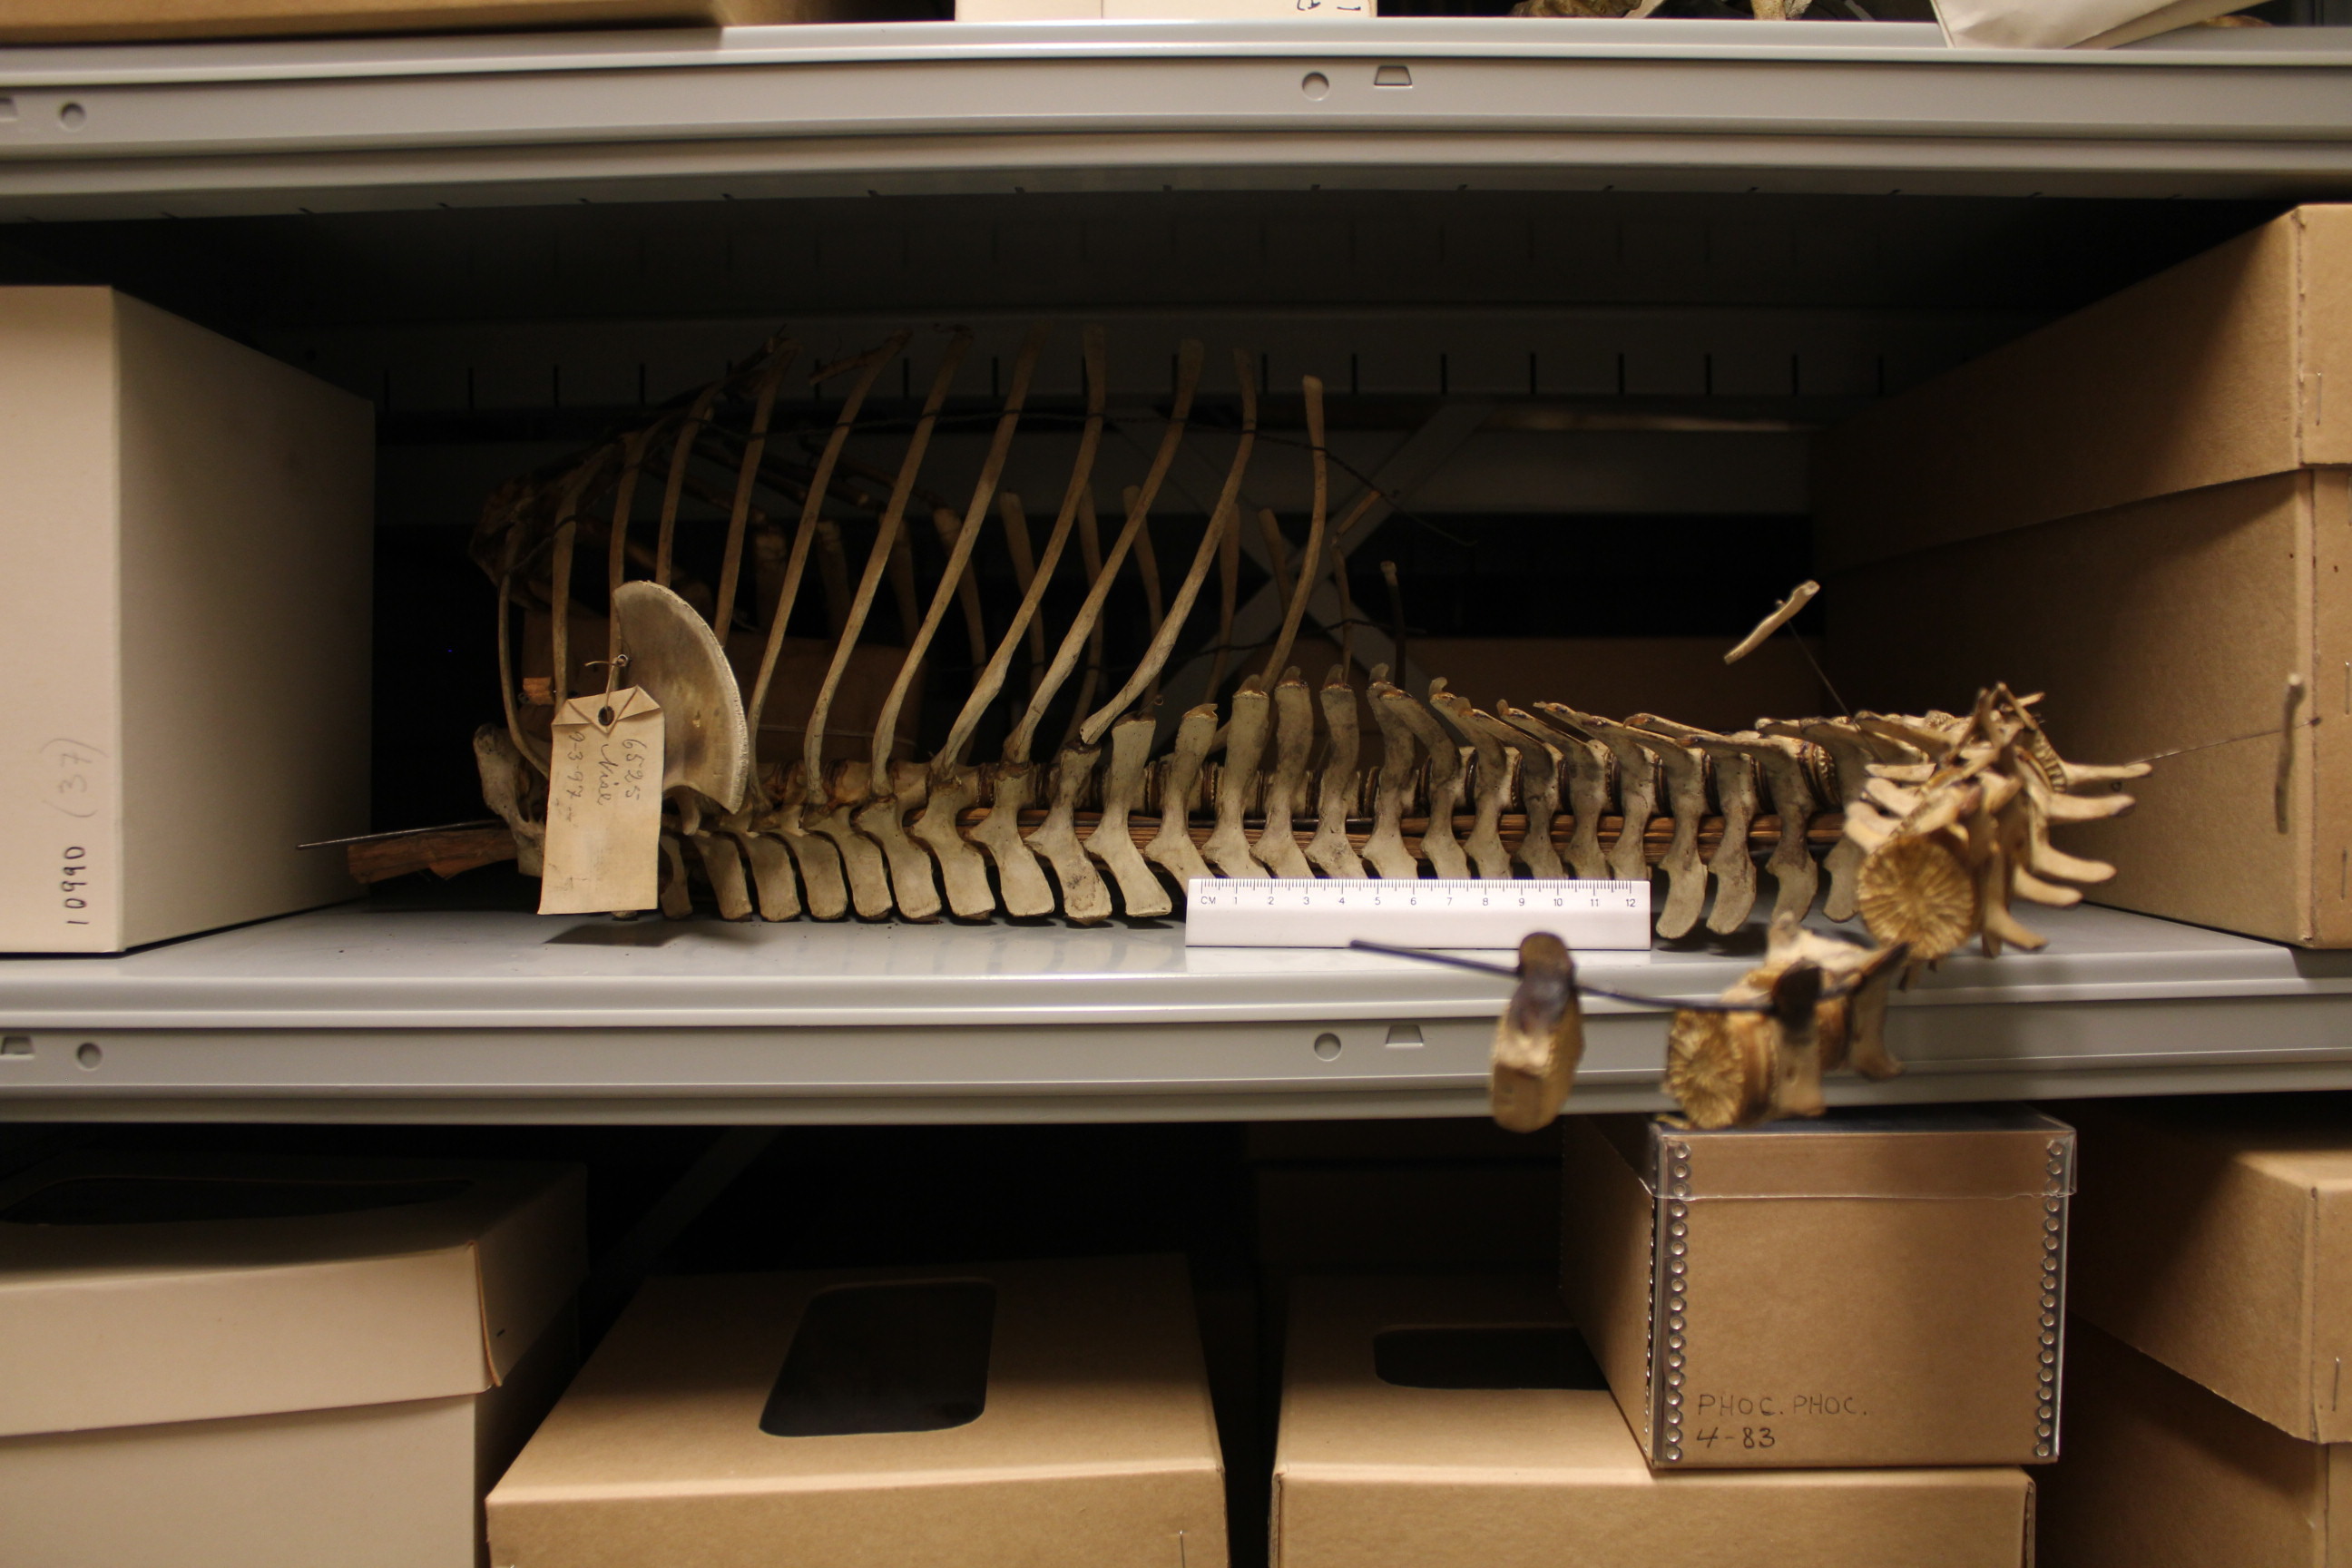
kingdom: Animalia
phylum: Chordata
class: Mammalia
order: Cetacea
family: Phocoenidae
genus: Phocoena
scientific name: Phocoena phocoena
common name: Harbor porpoise
